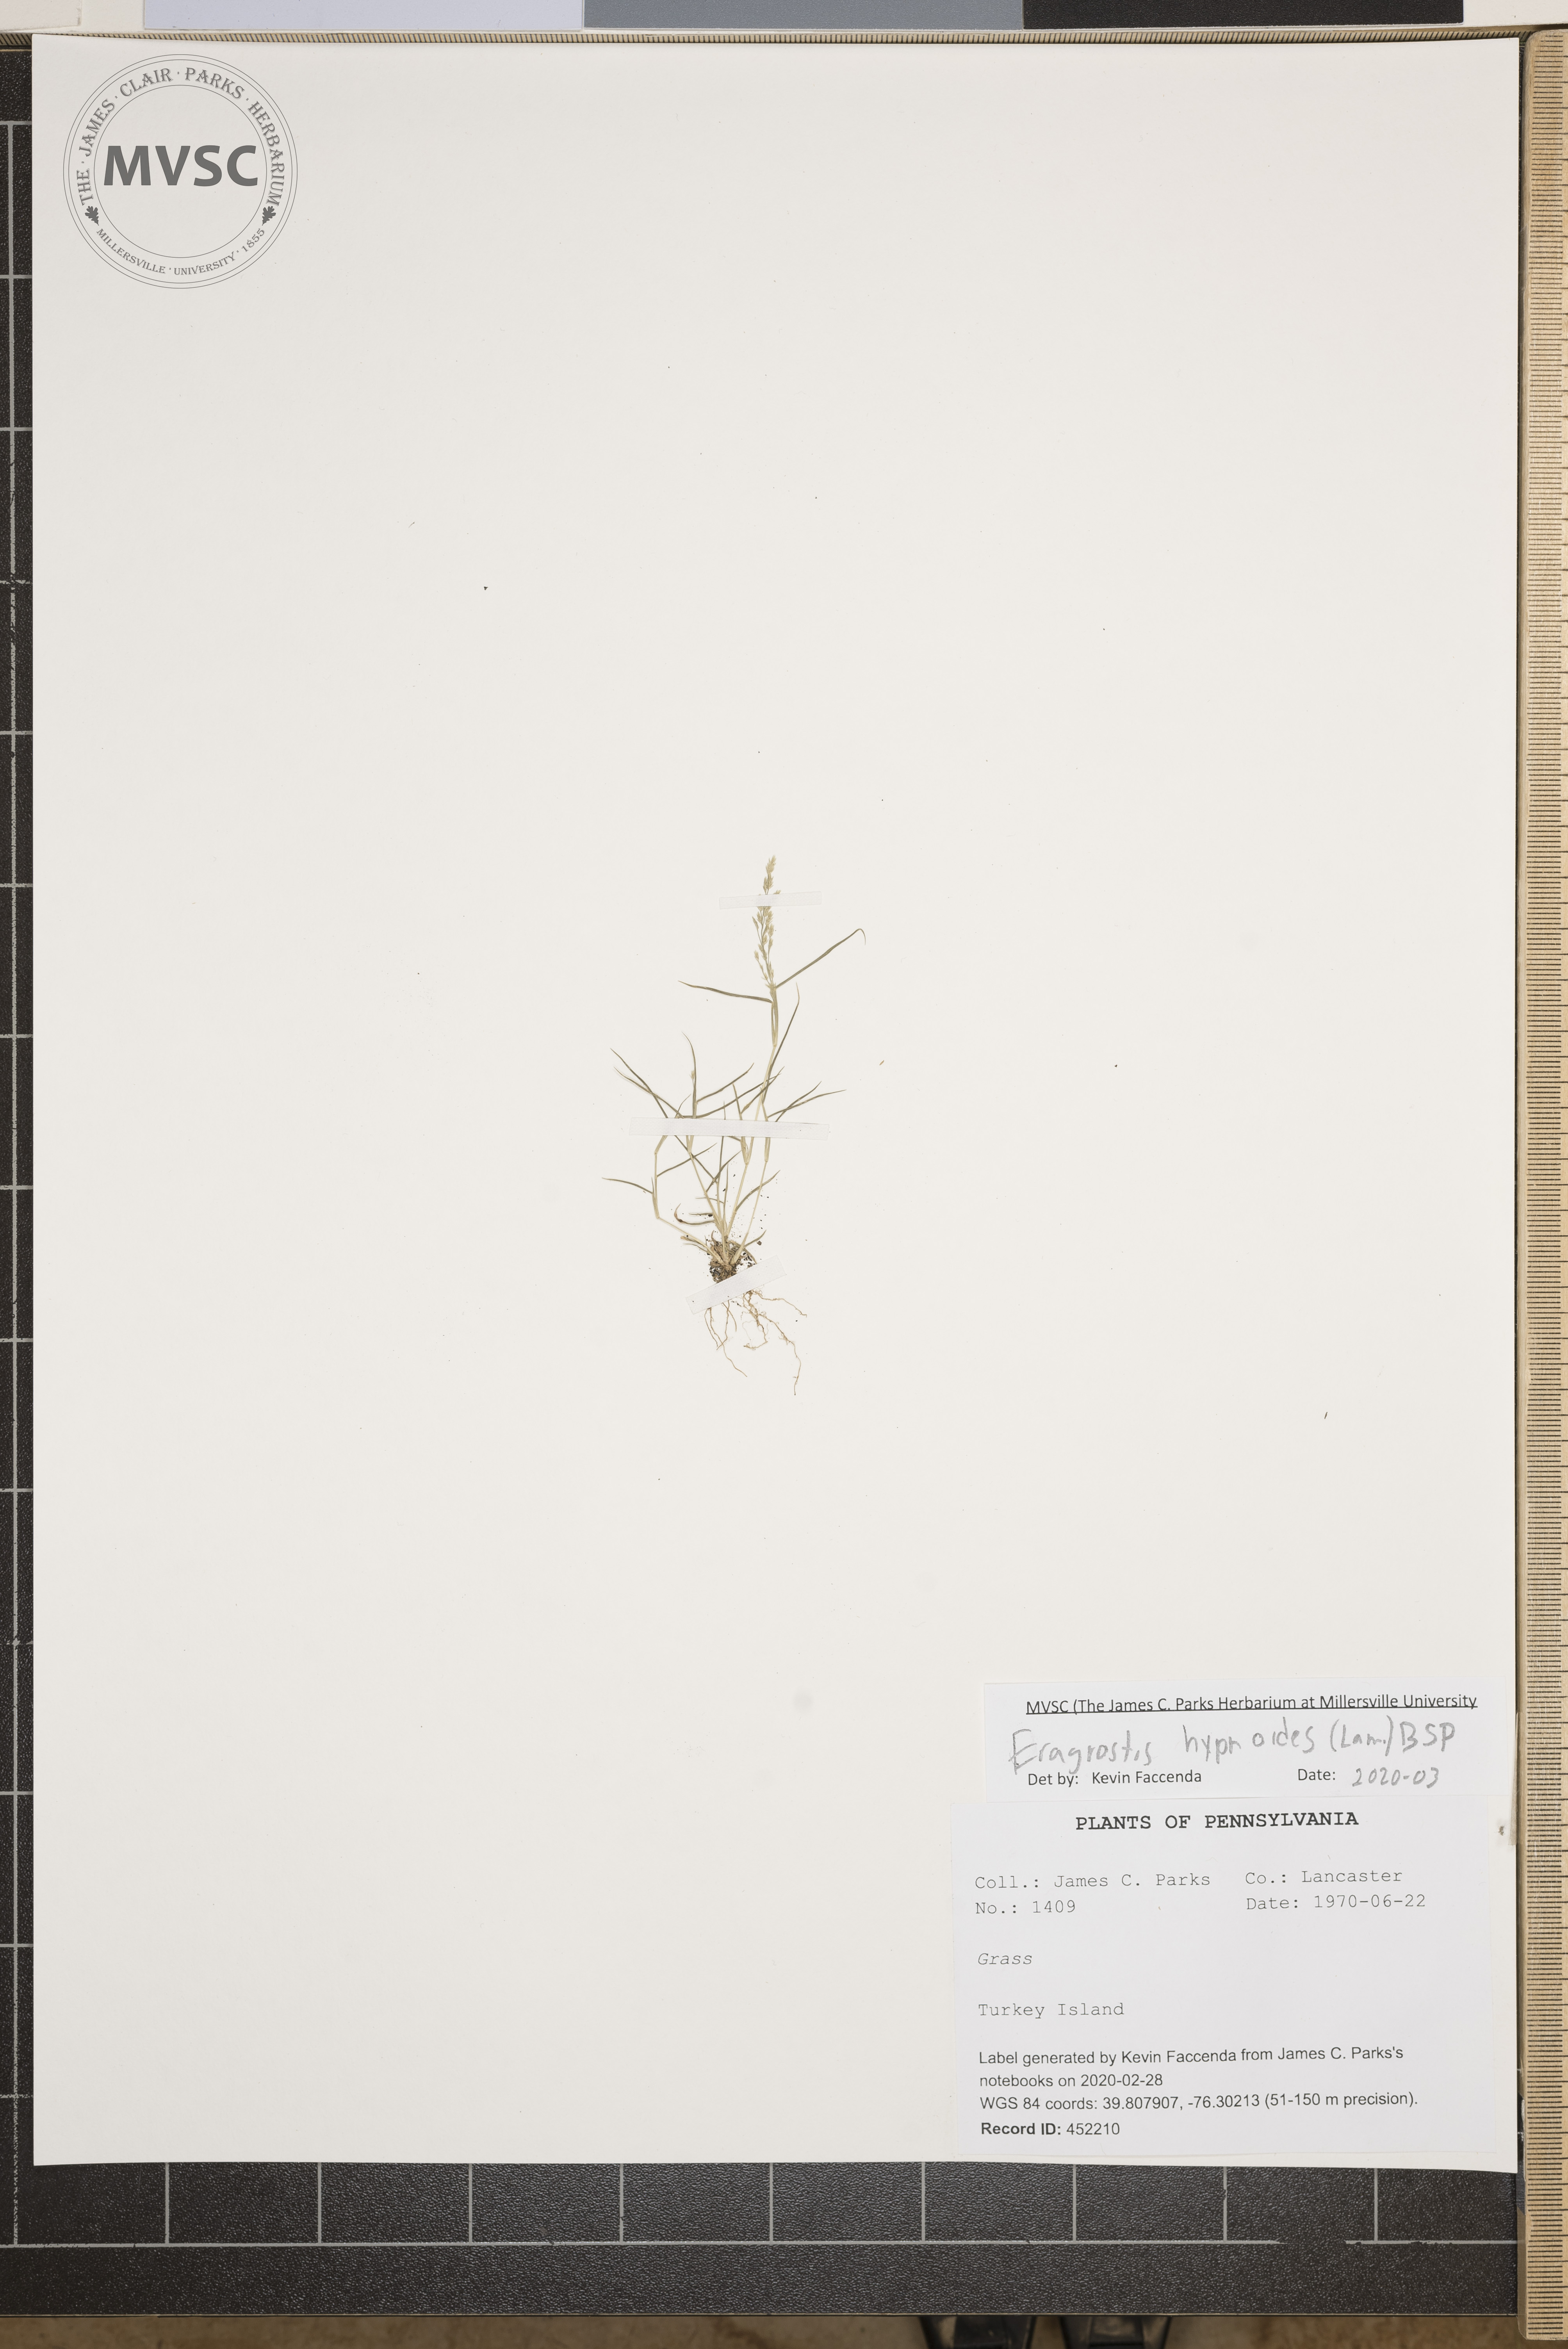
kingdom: Plantae
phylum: Tracheophyta
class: Liliopsida
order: Poales
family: Poaceae
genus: Eragrostis
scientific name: Eragrostis
